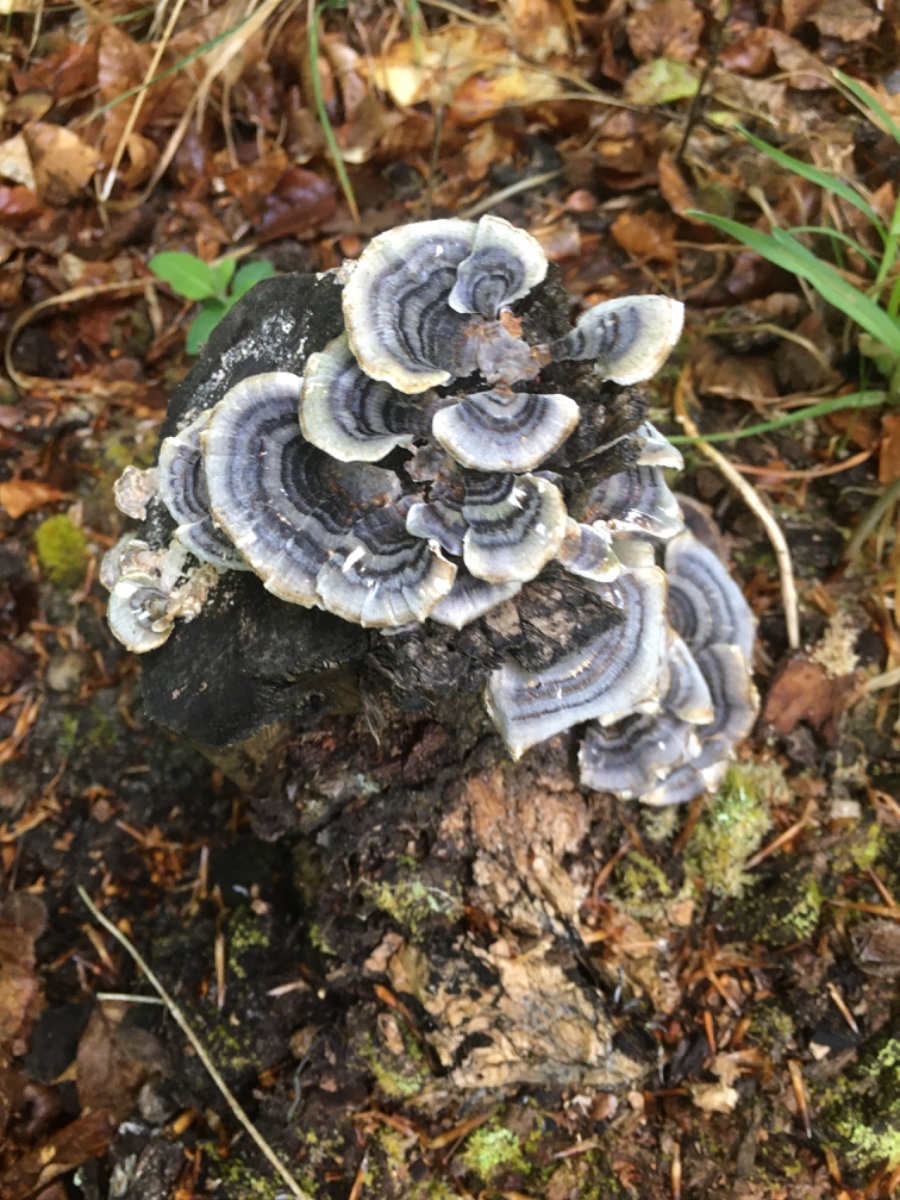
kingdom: Fungi
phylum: Basidiomycota
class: Agaricomycetes
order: Polyporales
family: Polyporaceae
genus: Trametes
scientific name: Trametes versicolor
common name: broget læderporesvamp
